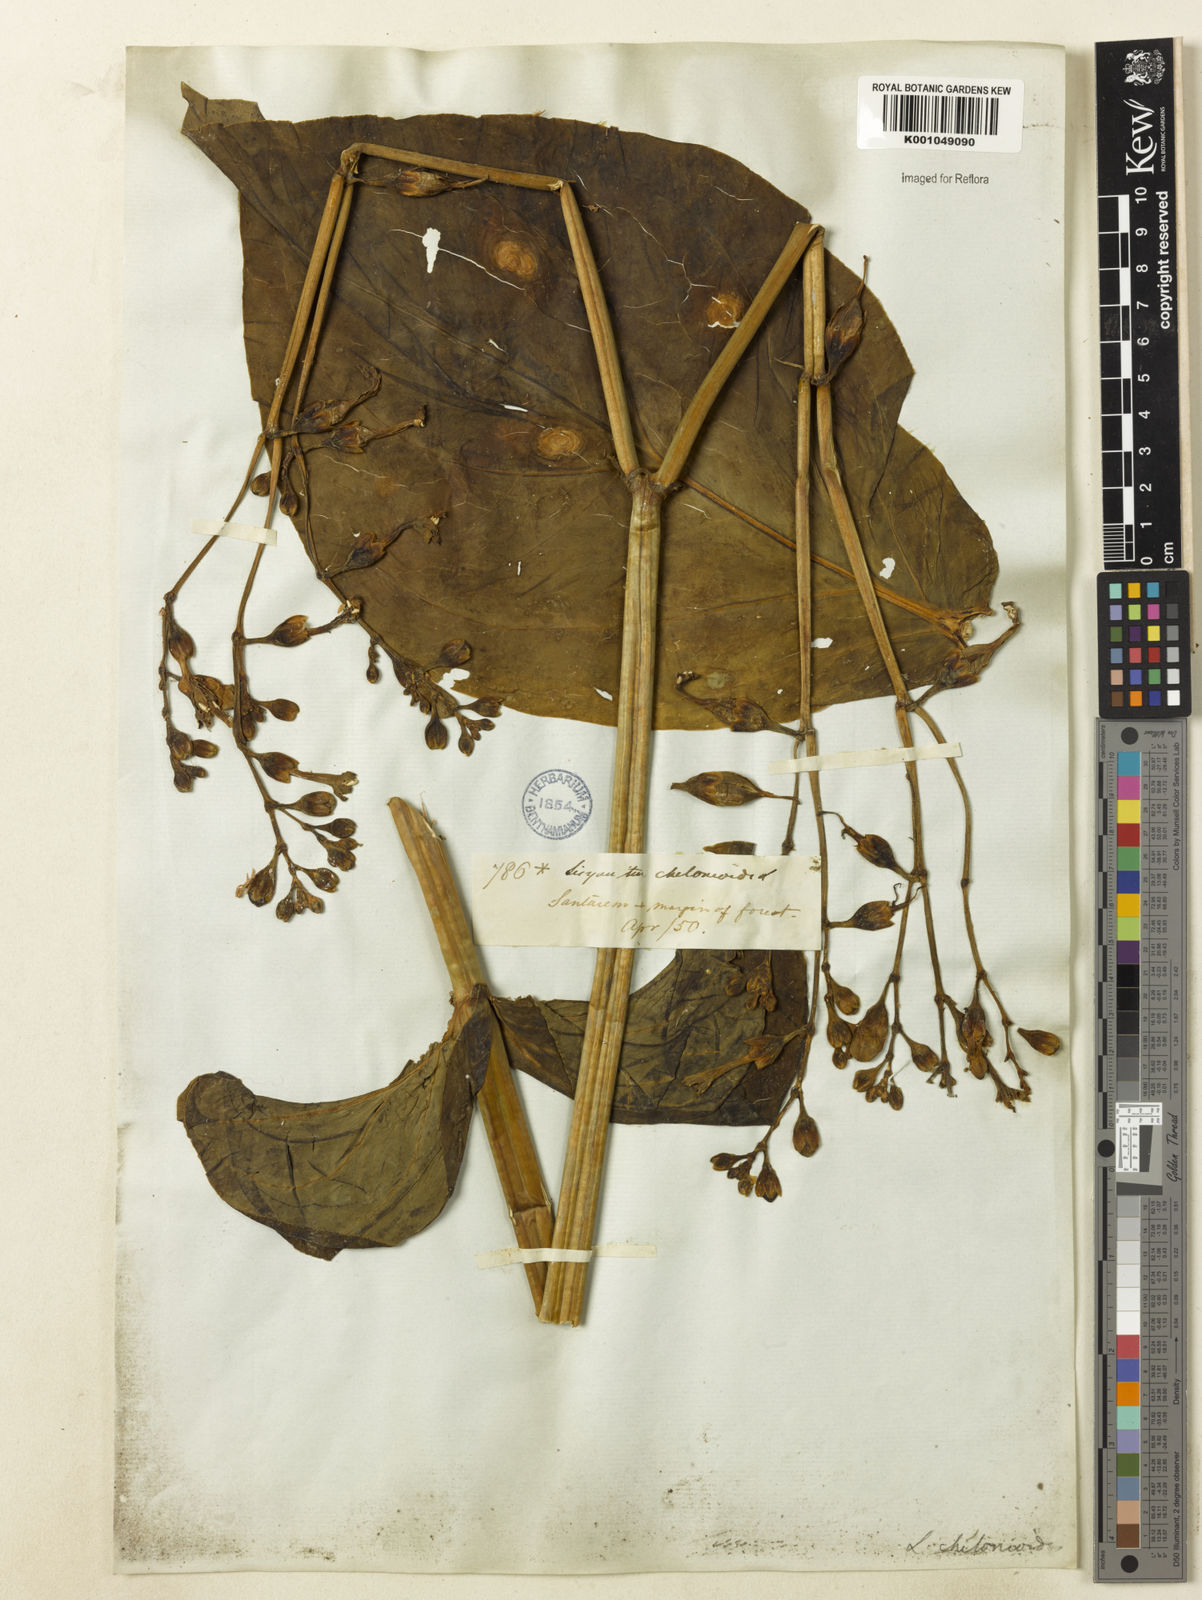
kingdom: Plantae
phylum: Tracheophyta
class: Magnoliopsida
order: Gentianales
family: Gentianaceae
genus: Chelonanthus
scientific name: Chelonanthus grandiflorus
